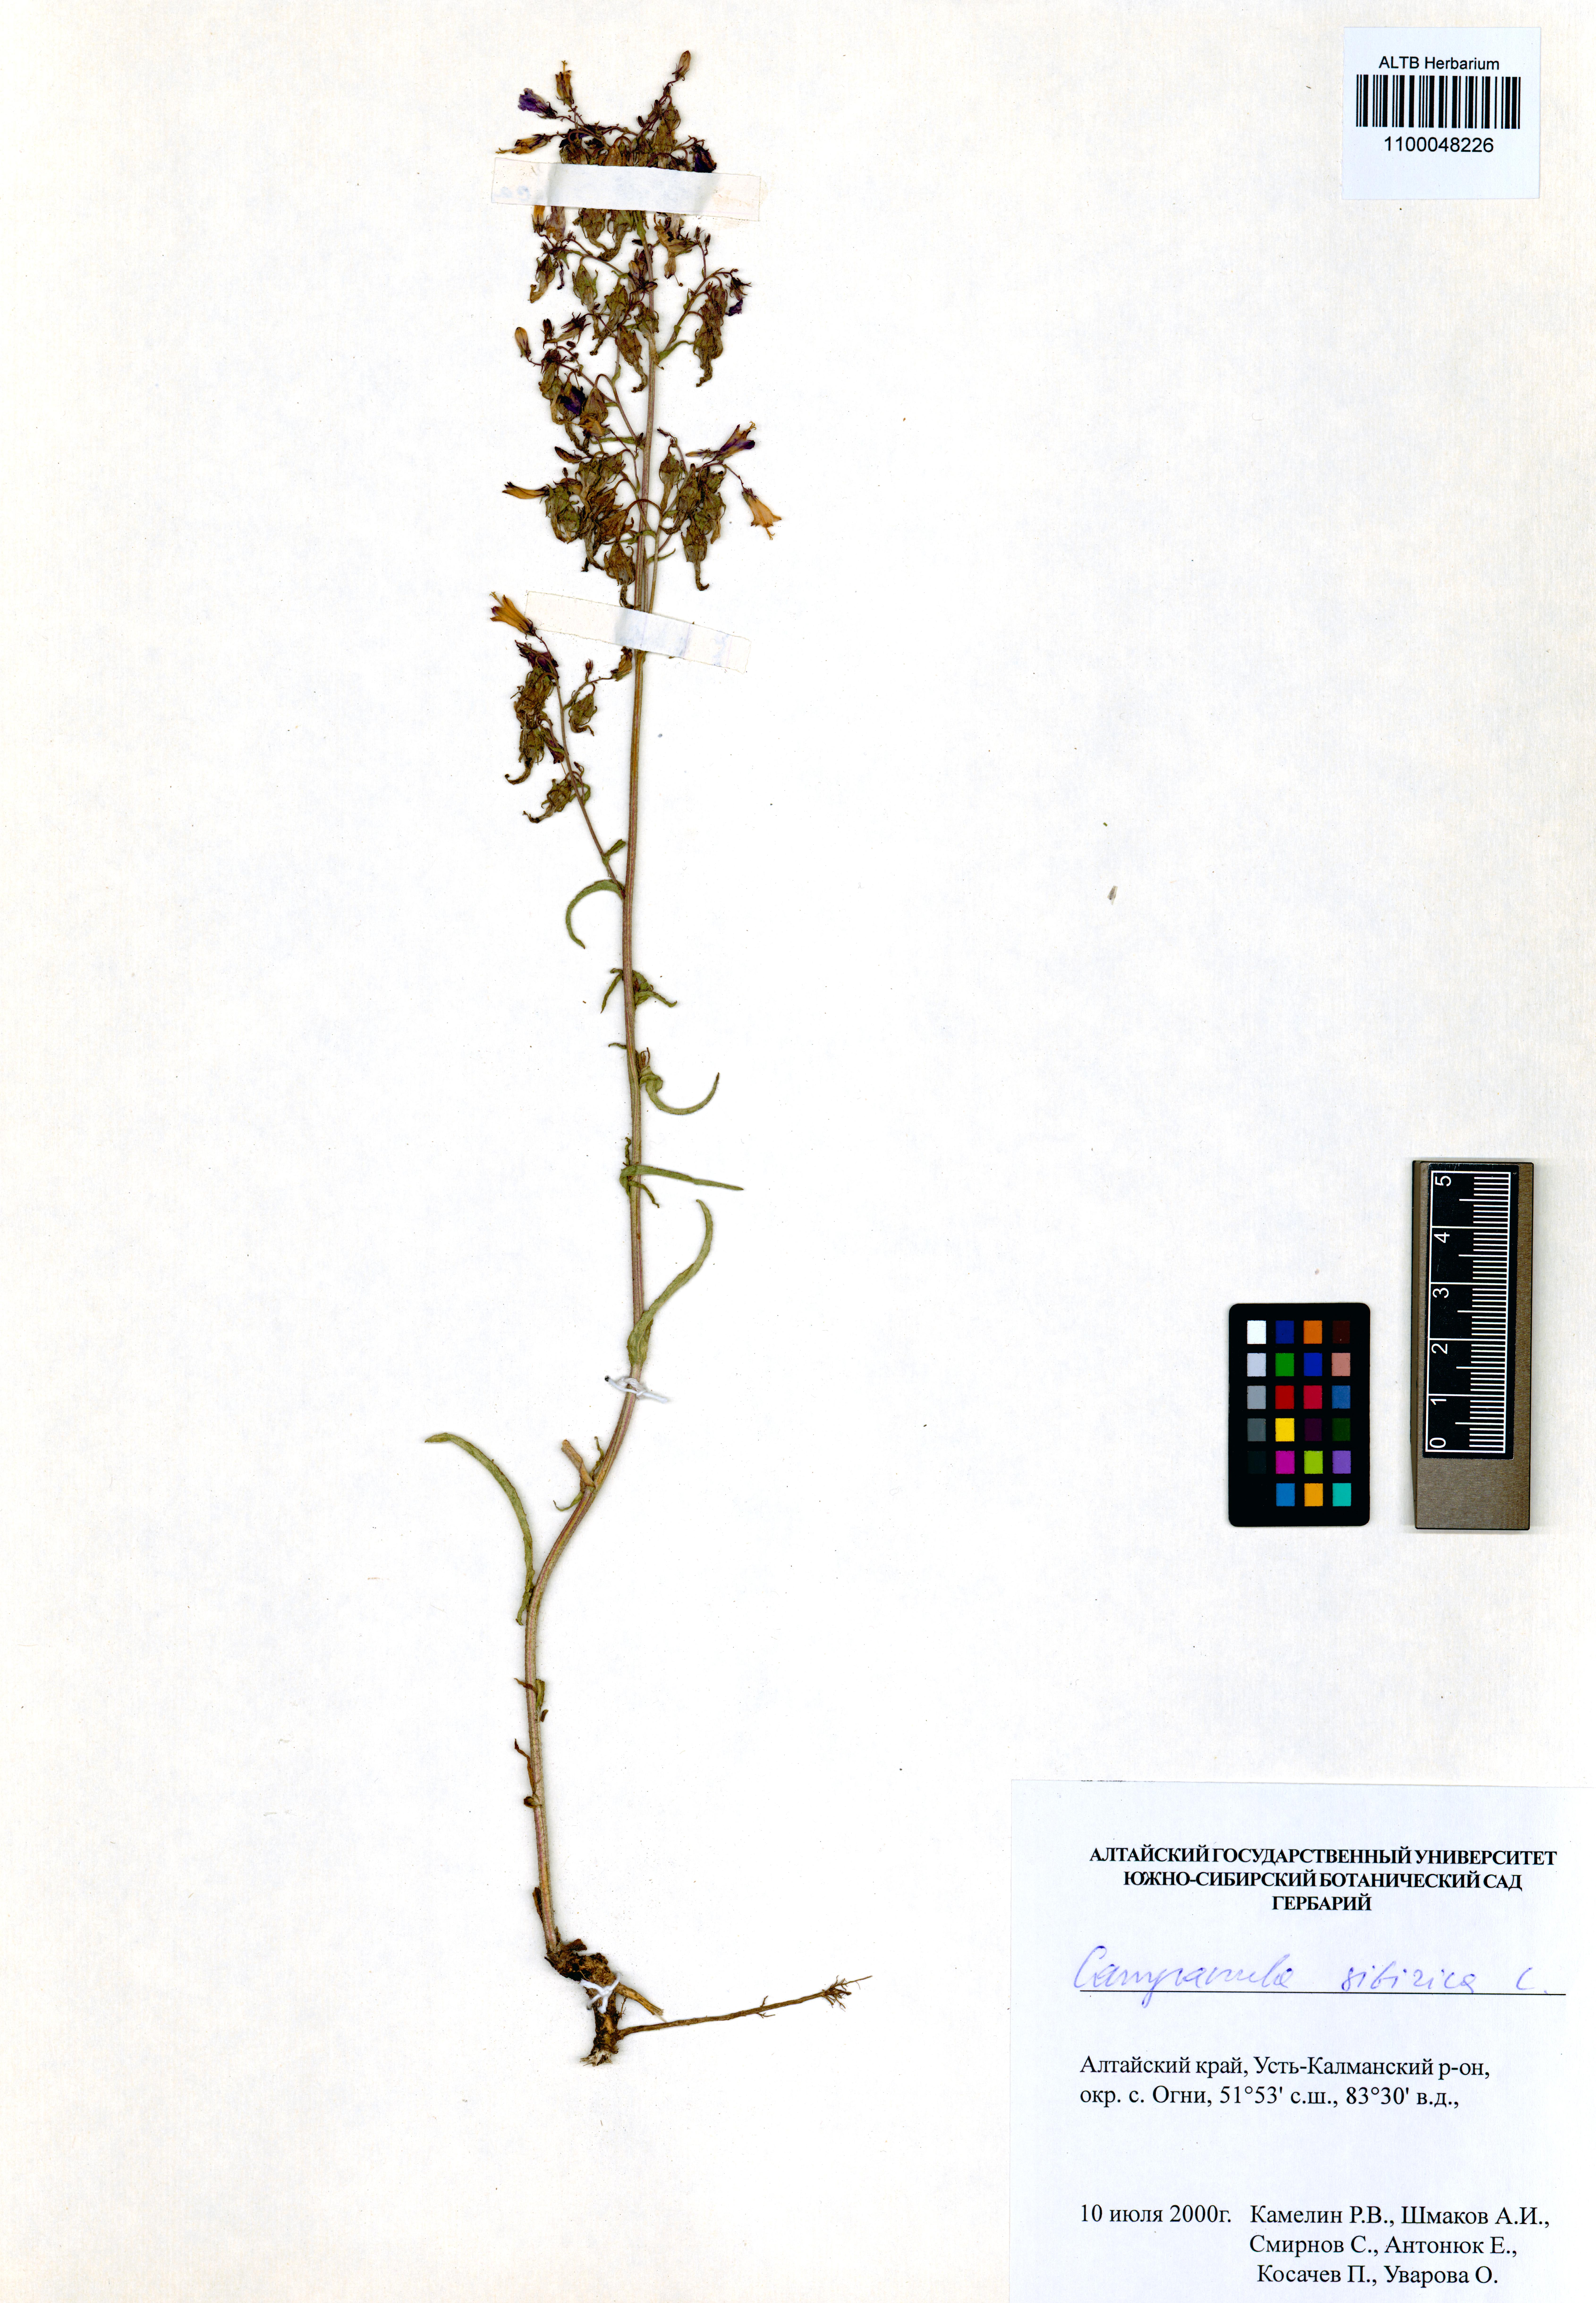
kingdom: Plantae
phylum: Tracheophyta
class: Magnoliopsida
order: Asterales
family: Campanulaceae
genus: Campanula
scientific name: Campanula sibirica
